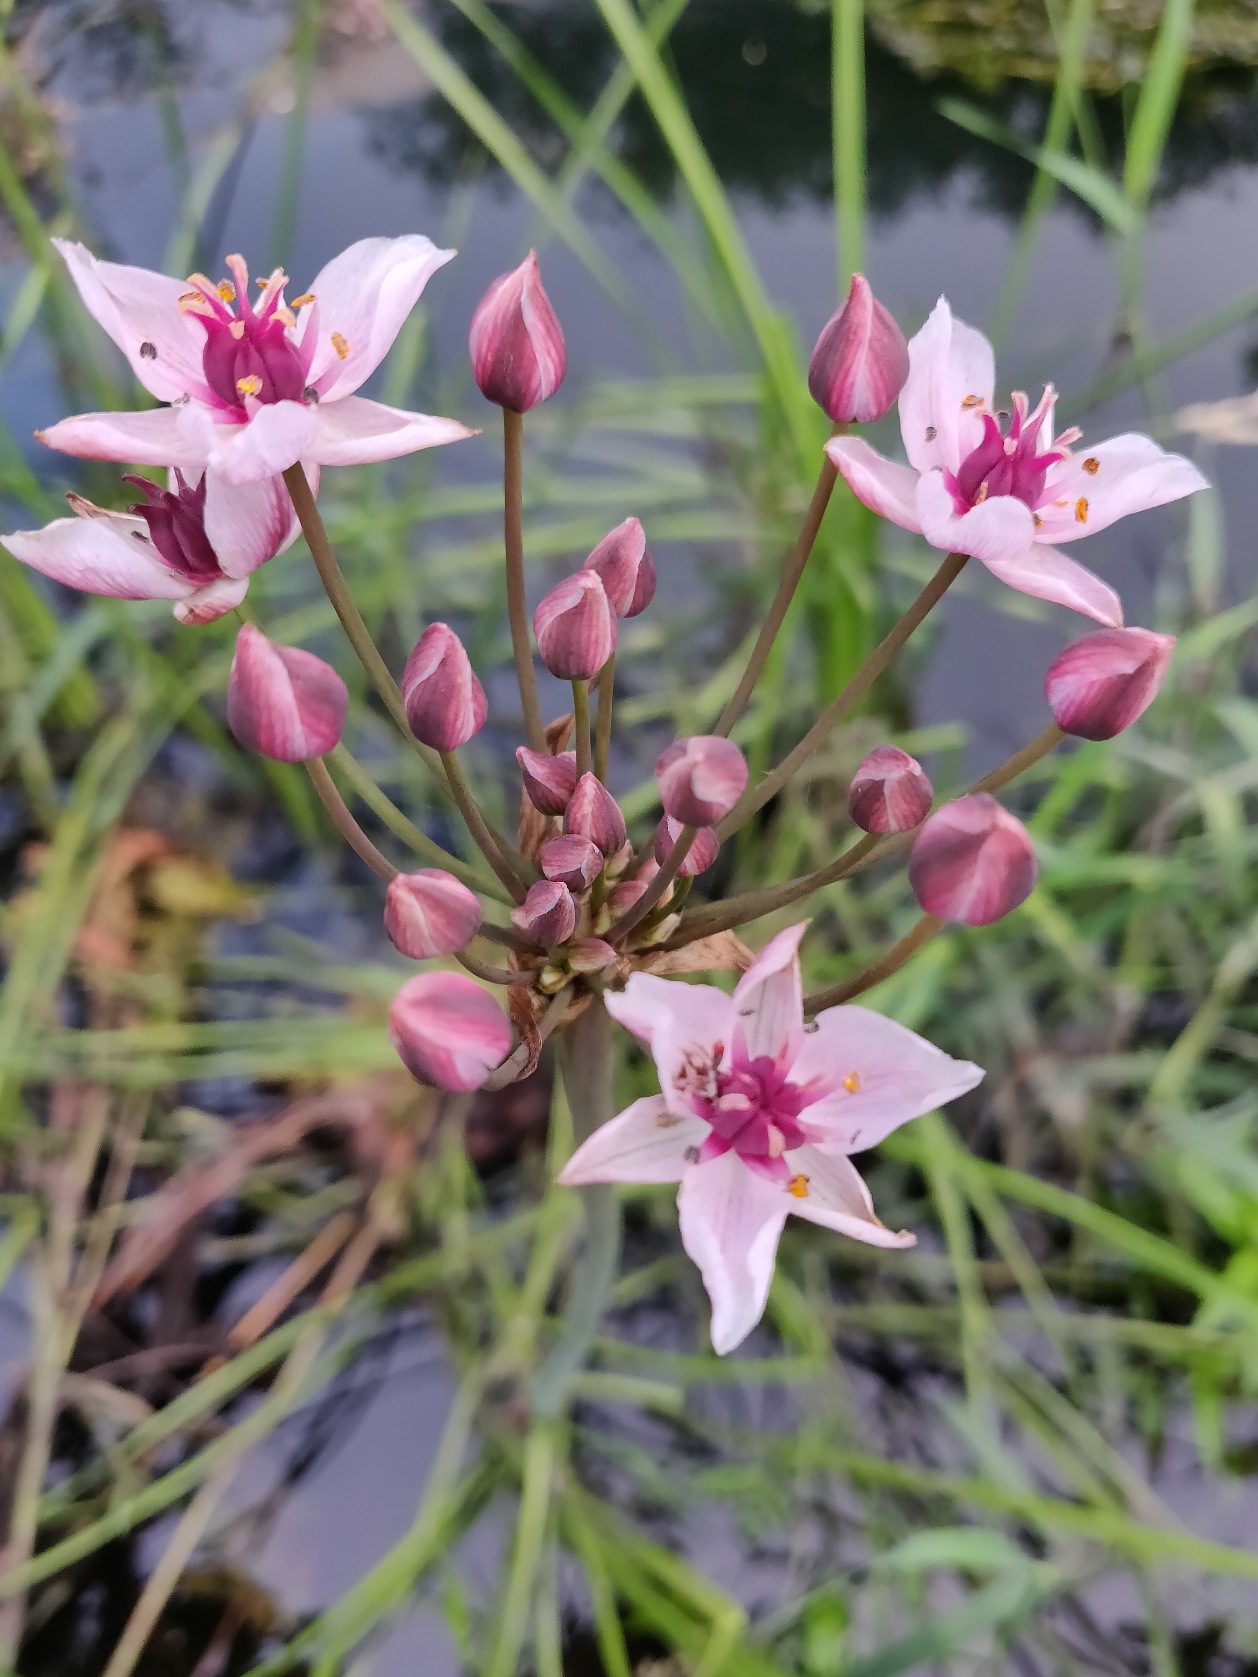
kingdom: Plantae
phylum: Tracheophyta
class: Liliopsida
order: Alismatales
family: Butomaceae
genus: Butomus
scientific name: Butomus umbellatus
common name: Brudelys
